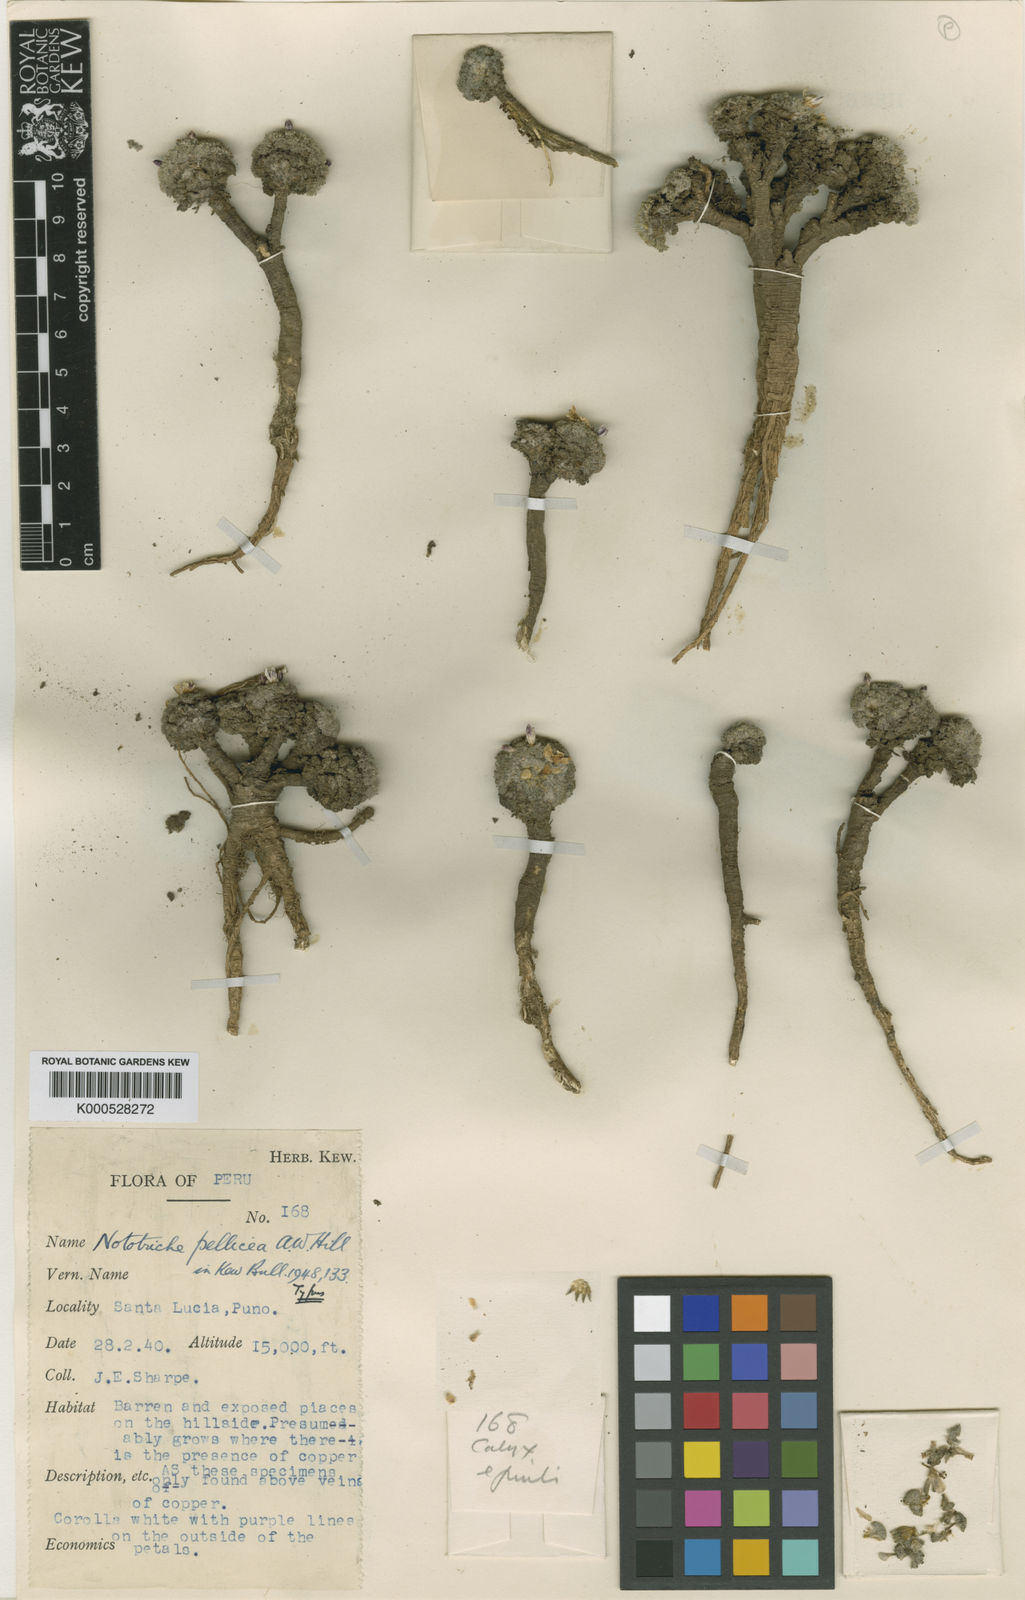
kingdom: Plantae
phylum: Tracheophyta
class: Magnoliopsida
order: Malvales
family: Malvaceae
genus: Nototriche
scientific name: Nototriche pellicea
